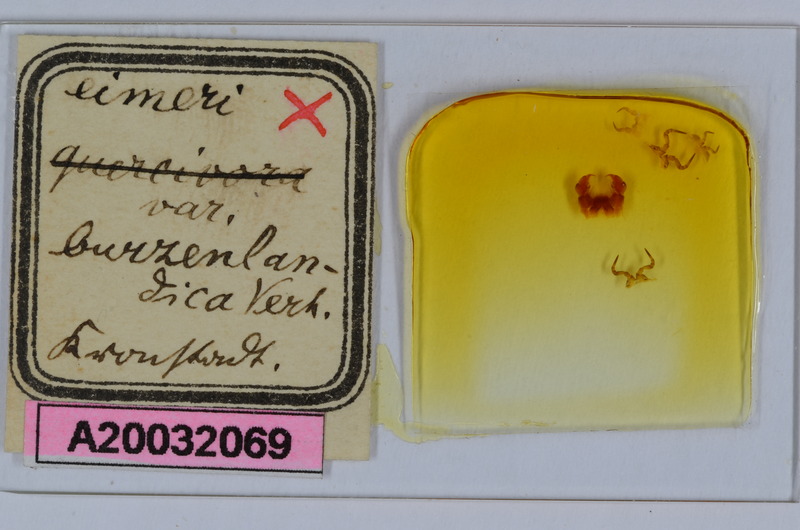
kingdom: Animalia
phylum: Arthropoda
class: Diplopoda
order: Glomerida
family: Glomeridae
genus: Glomeris
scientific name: Glomeris mnischechi
